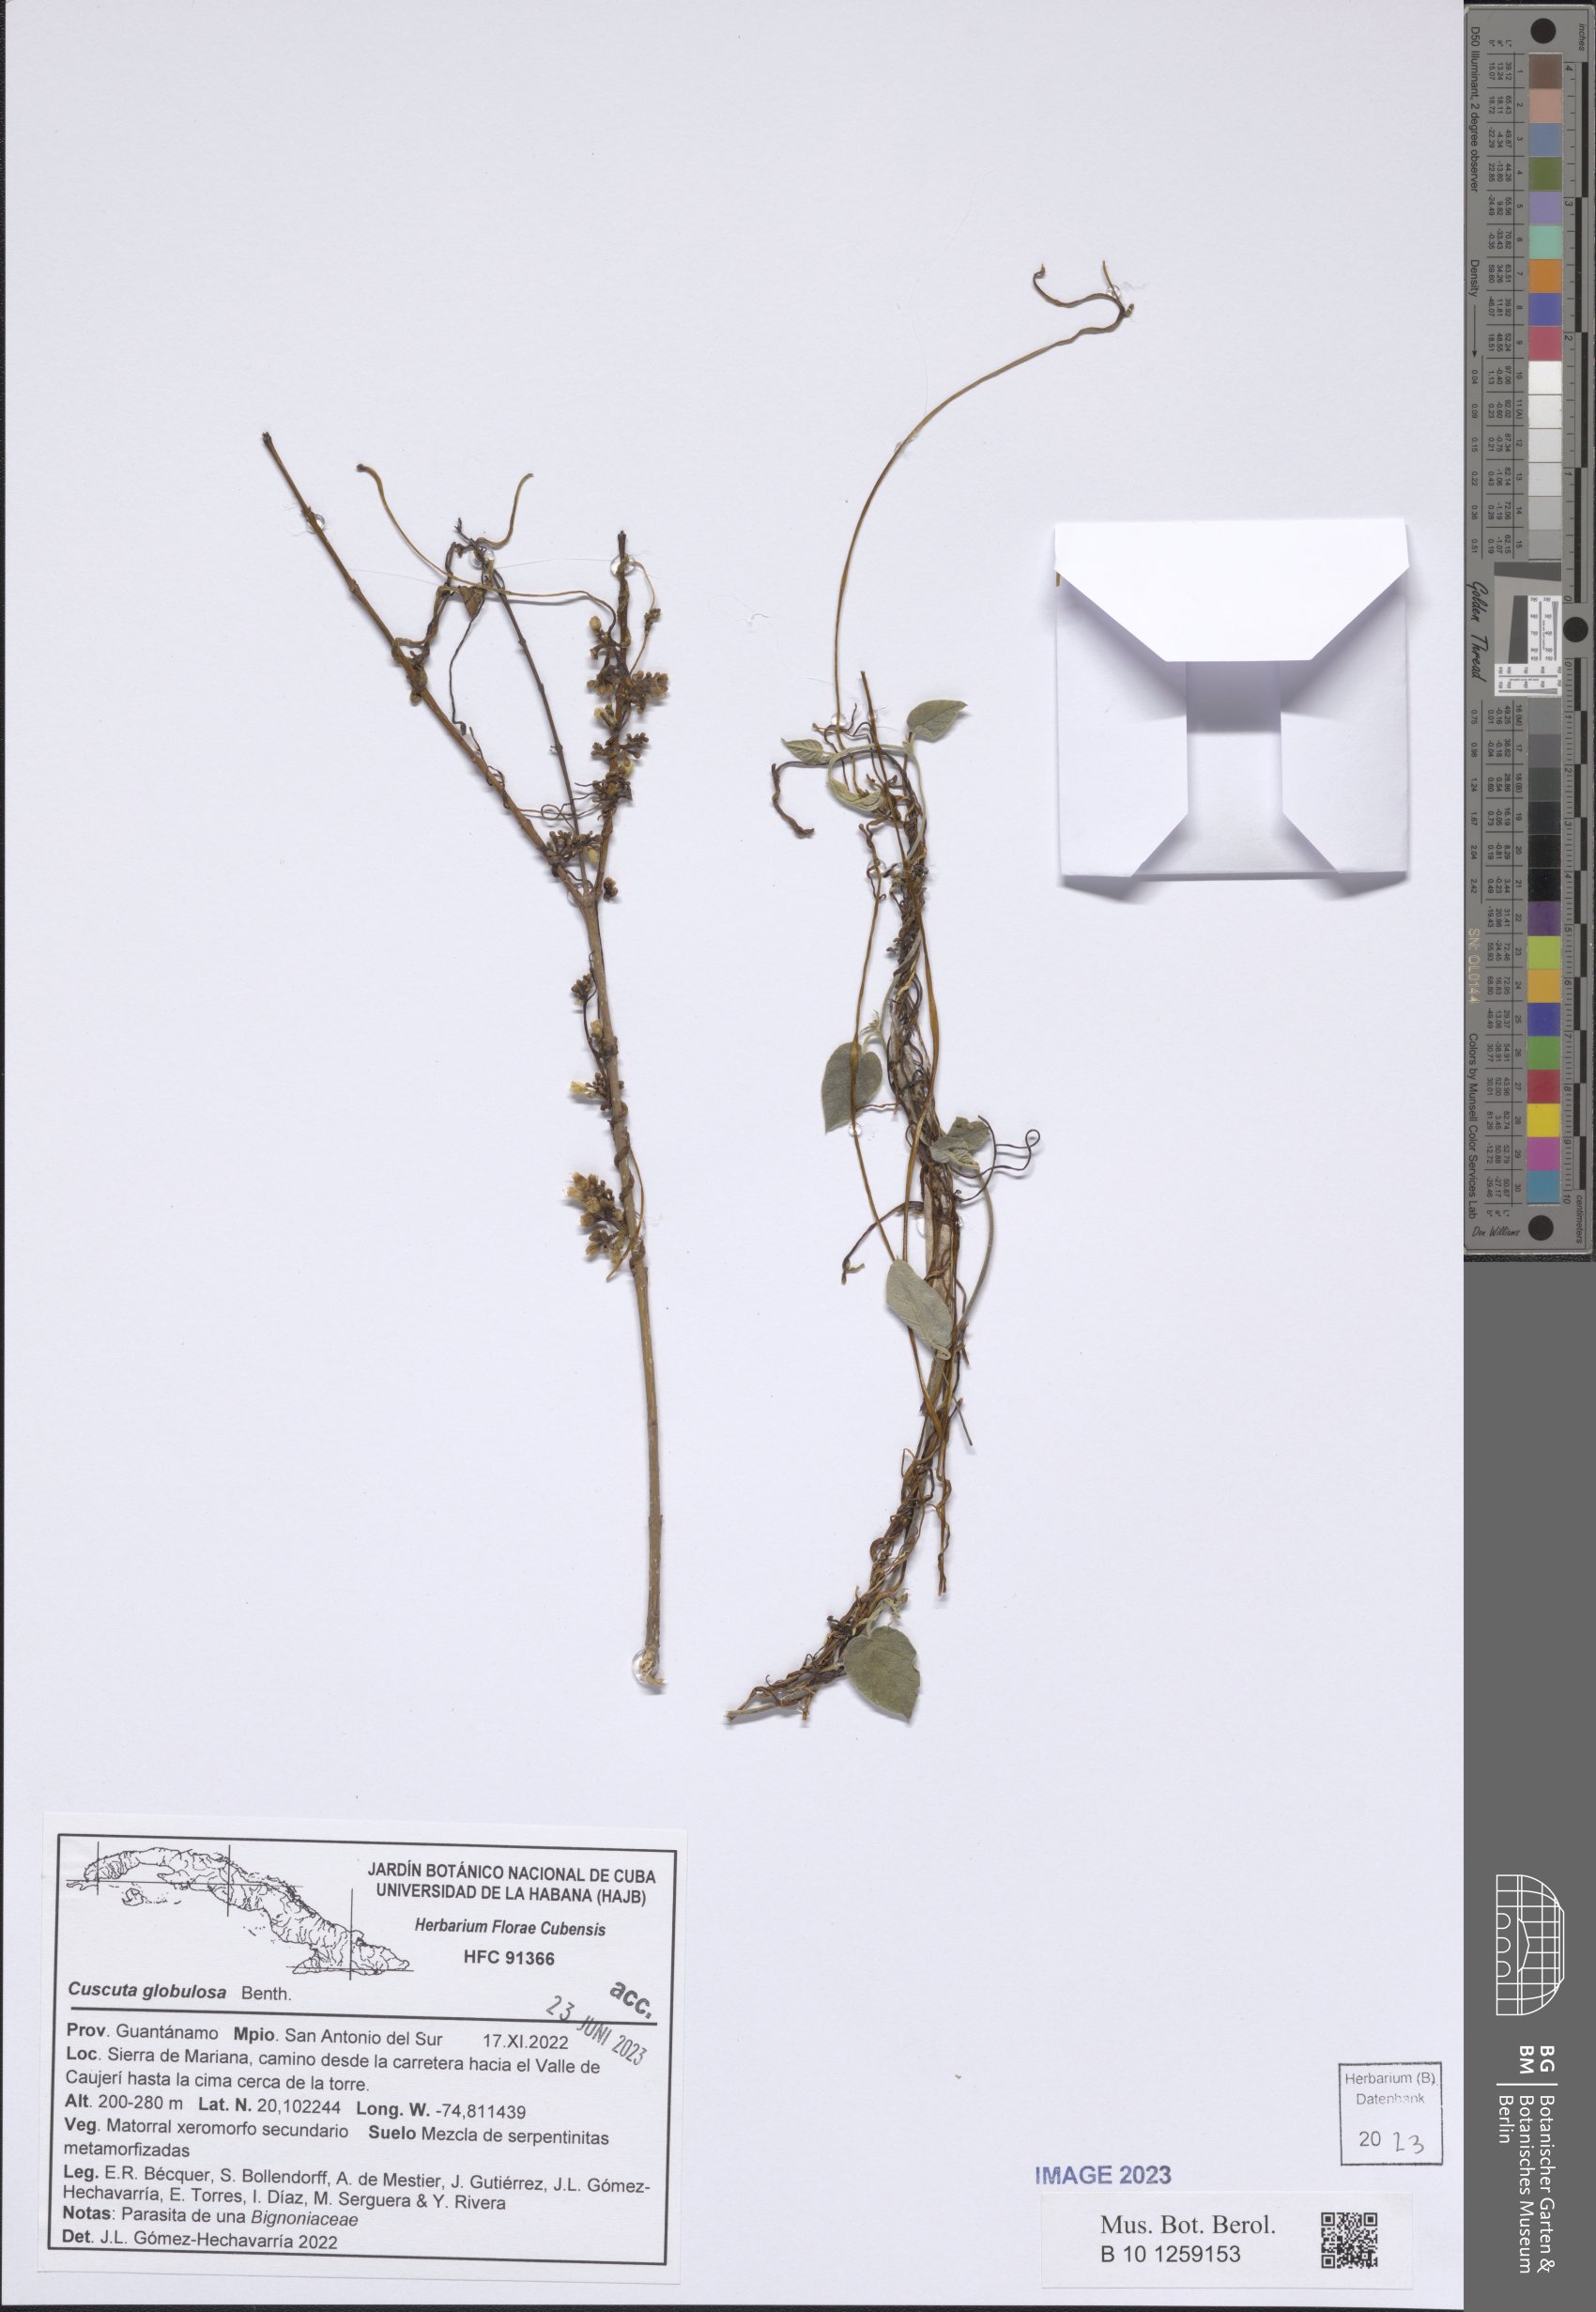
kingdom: Plantae
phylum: Tracheophyta
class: Magnoliopsida
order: Solanales
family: Convolvulaceae
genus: Cuscuta
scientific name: Cuscuta globulosa
